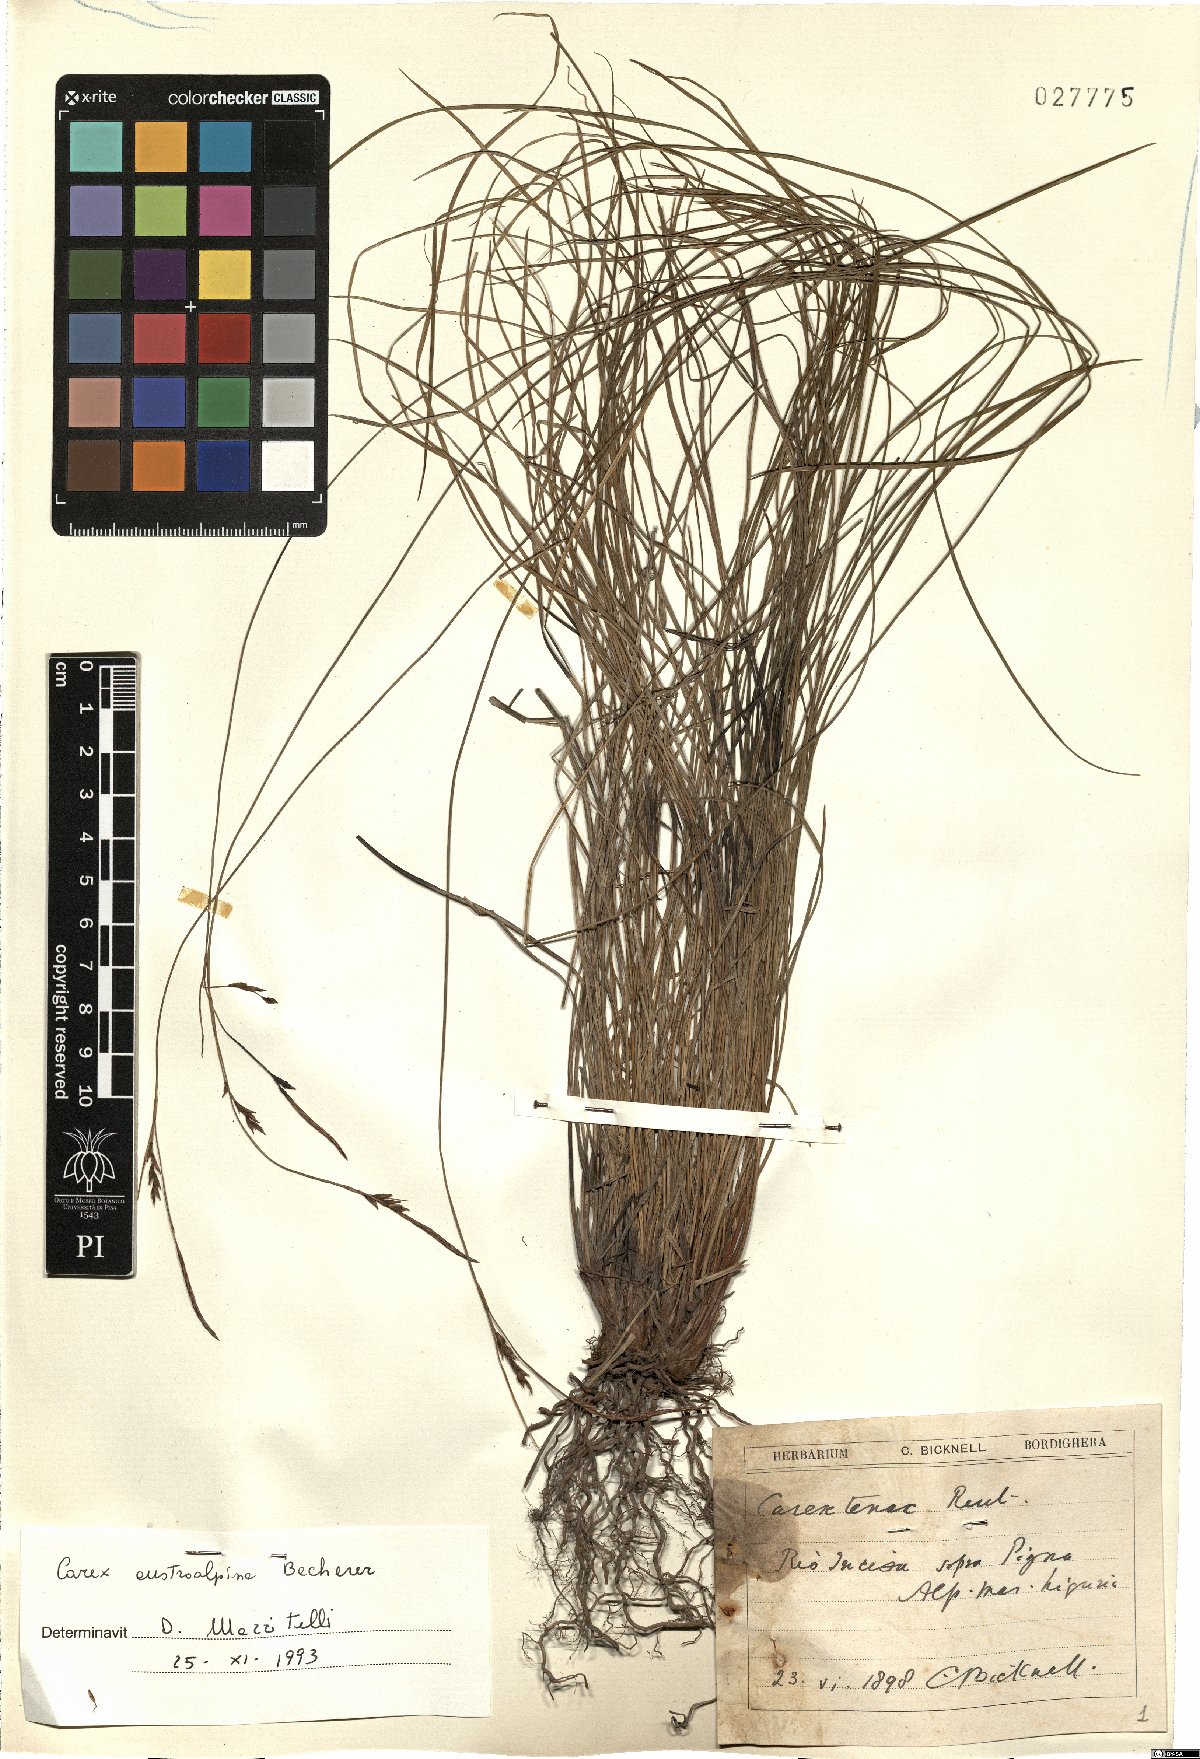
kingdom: Plantae
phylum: Tracheophyta
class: Liliopsida
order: Poales
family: Cyperaceae
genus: Carex
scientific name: Carex austroalpina
